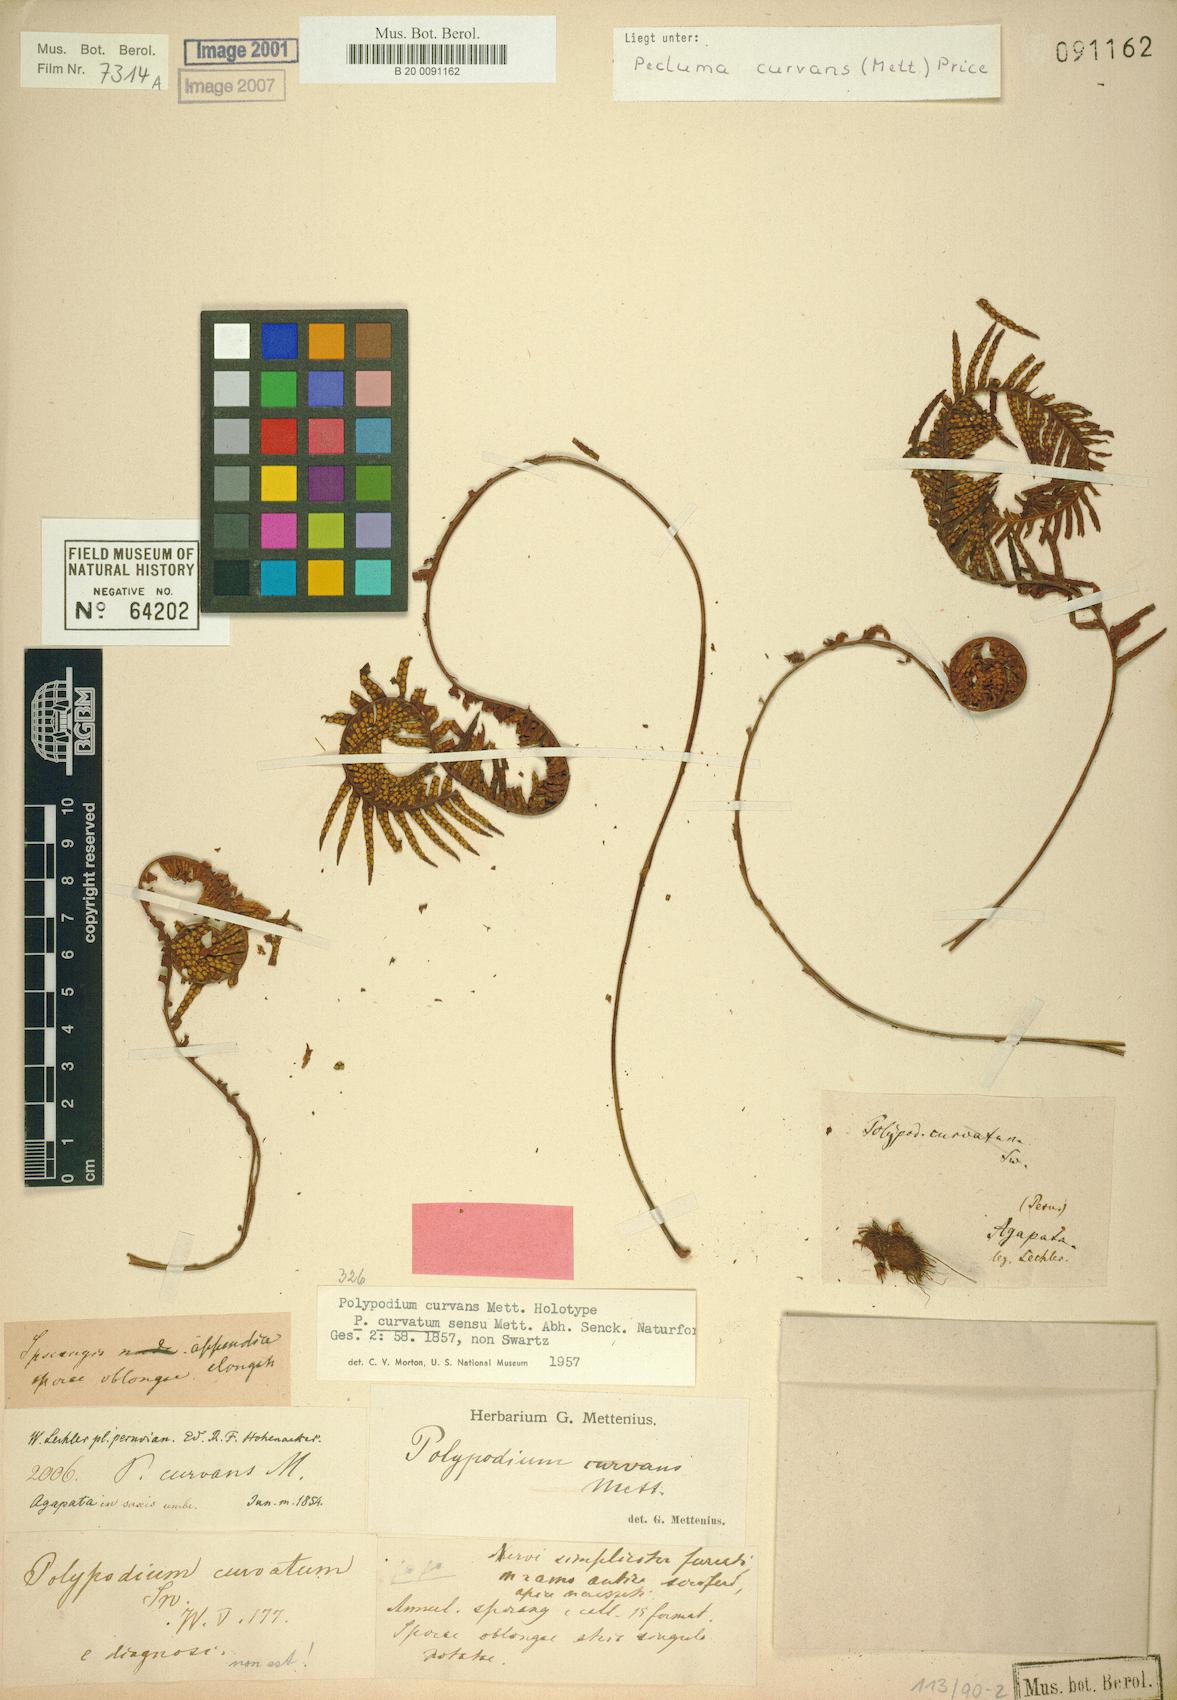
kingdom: Plantae
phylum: Tracheophyta
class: Polypodiopsida
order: Polypodiales
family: Polypodiaceae
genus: Pecluma
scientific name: Pecluma curvans
